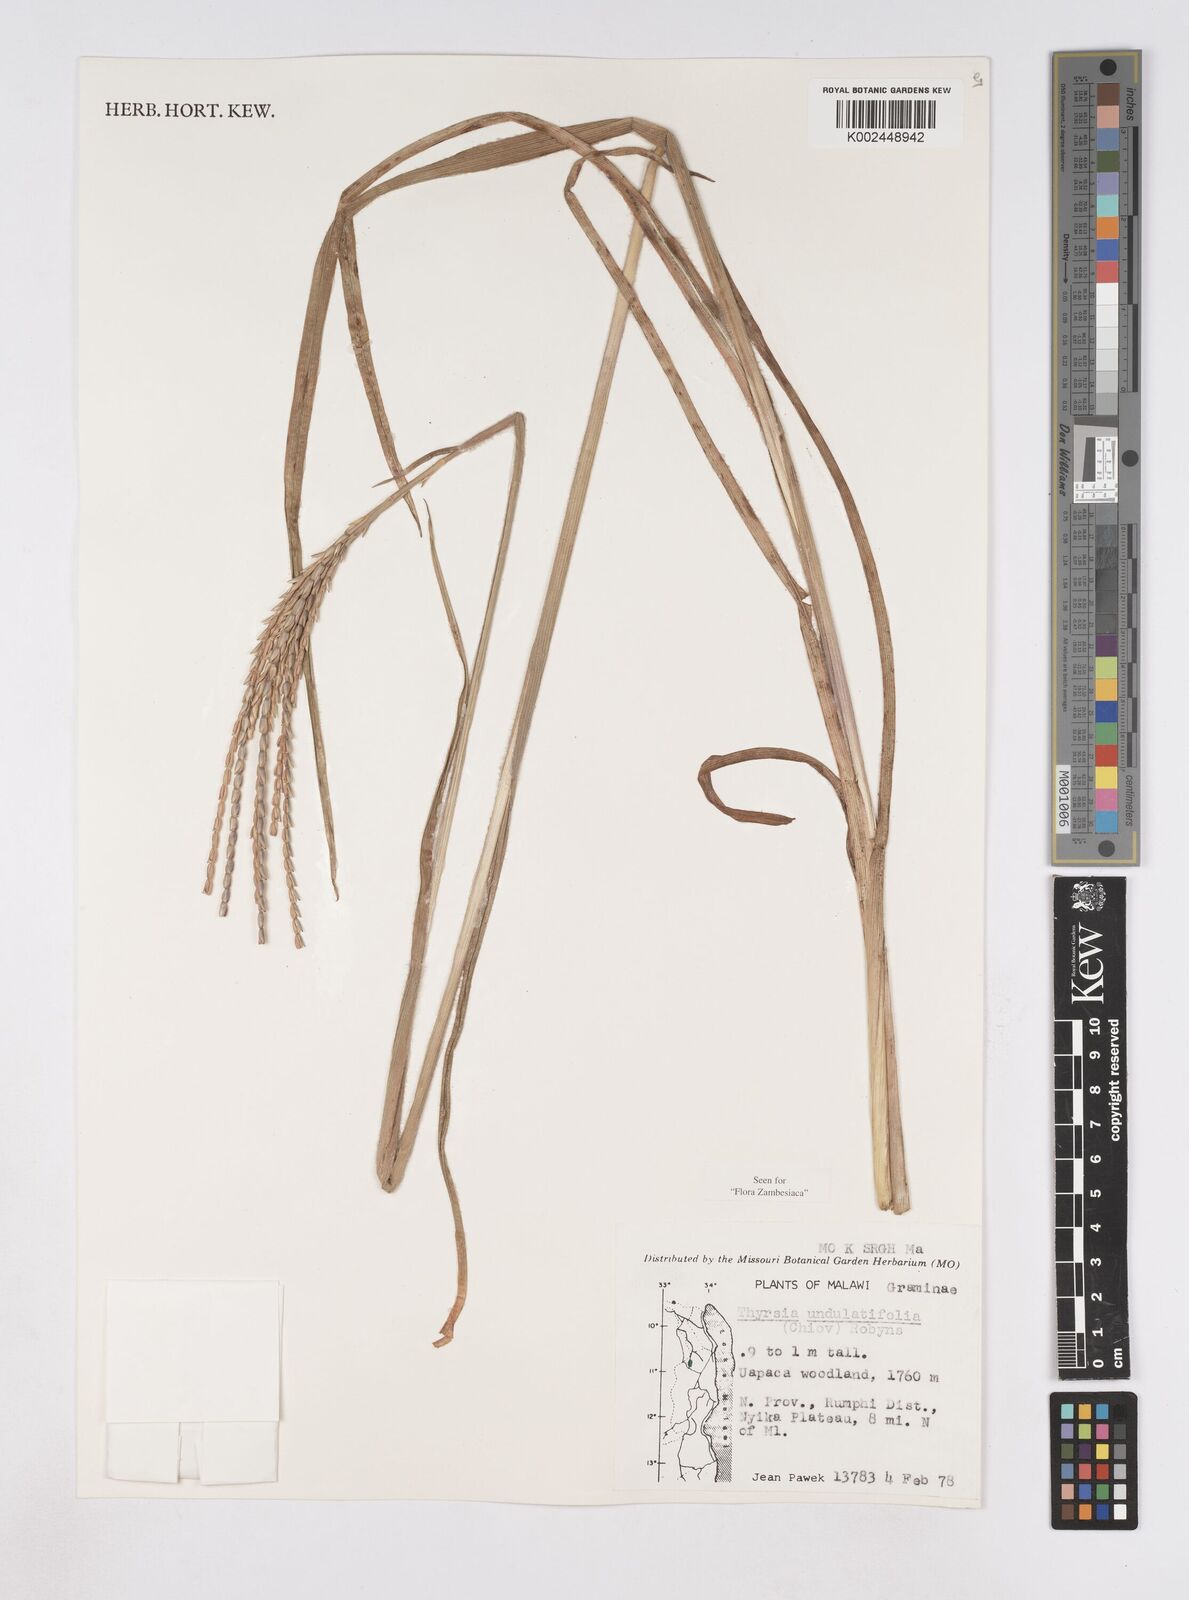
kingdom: Plantae
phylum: Tracheophyta
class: Liliopsida
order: Poales
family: Poaceae
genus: Thyrsia
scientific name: Thyrsia huillensis
